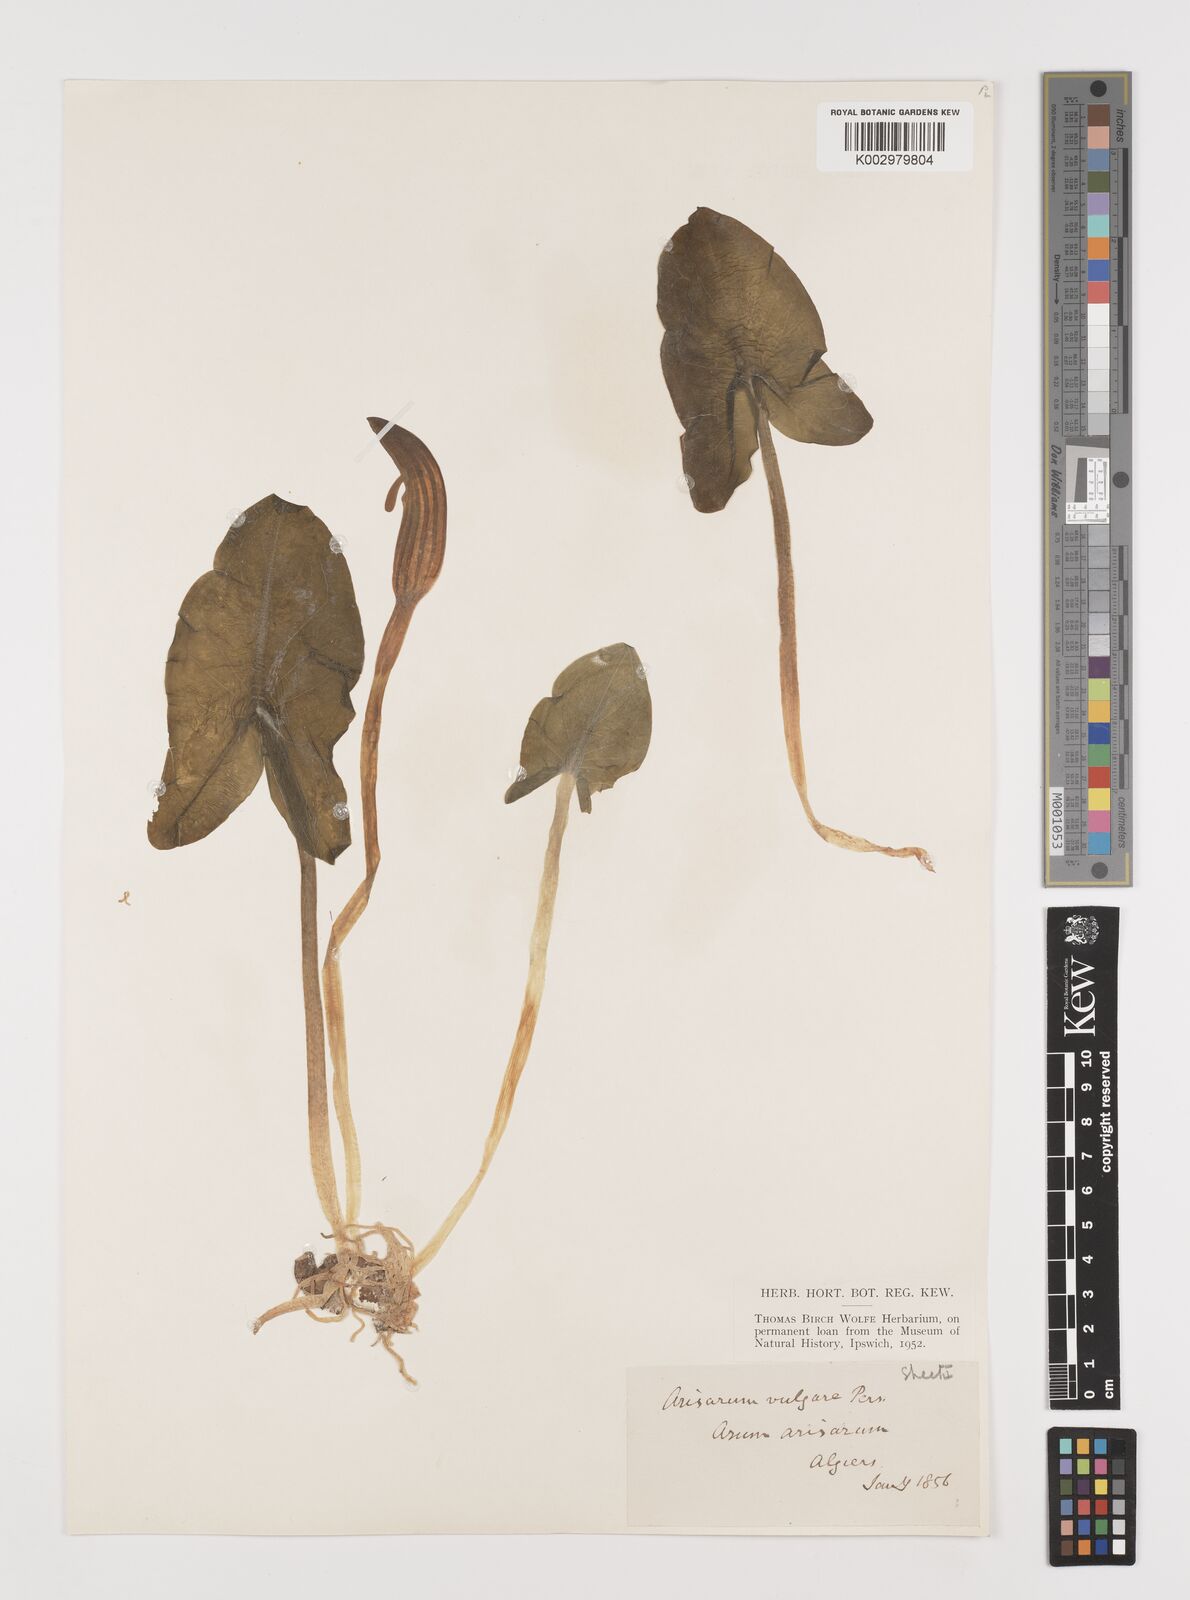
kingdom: Plantae
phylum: Tracheophyta
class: Liliopsida
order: Alismatales
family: Araceae
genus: Arisarum
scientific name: Arisarum vulgare
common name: Common arisarum
